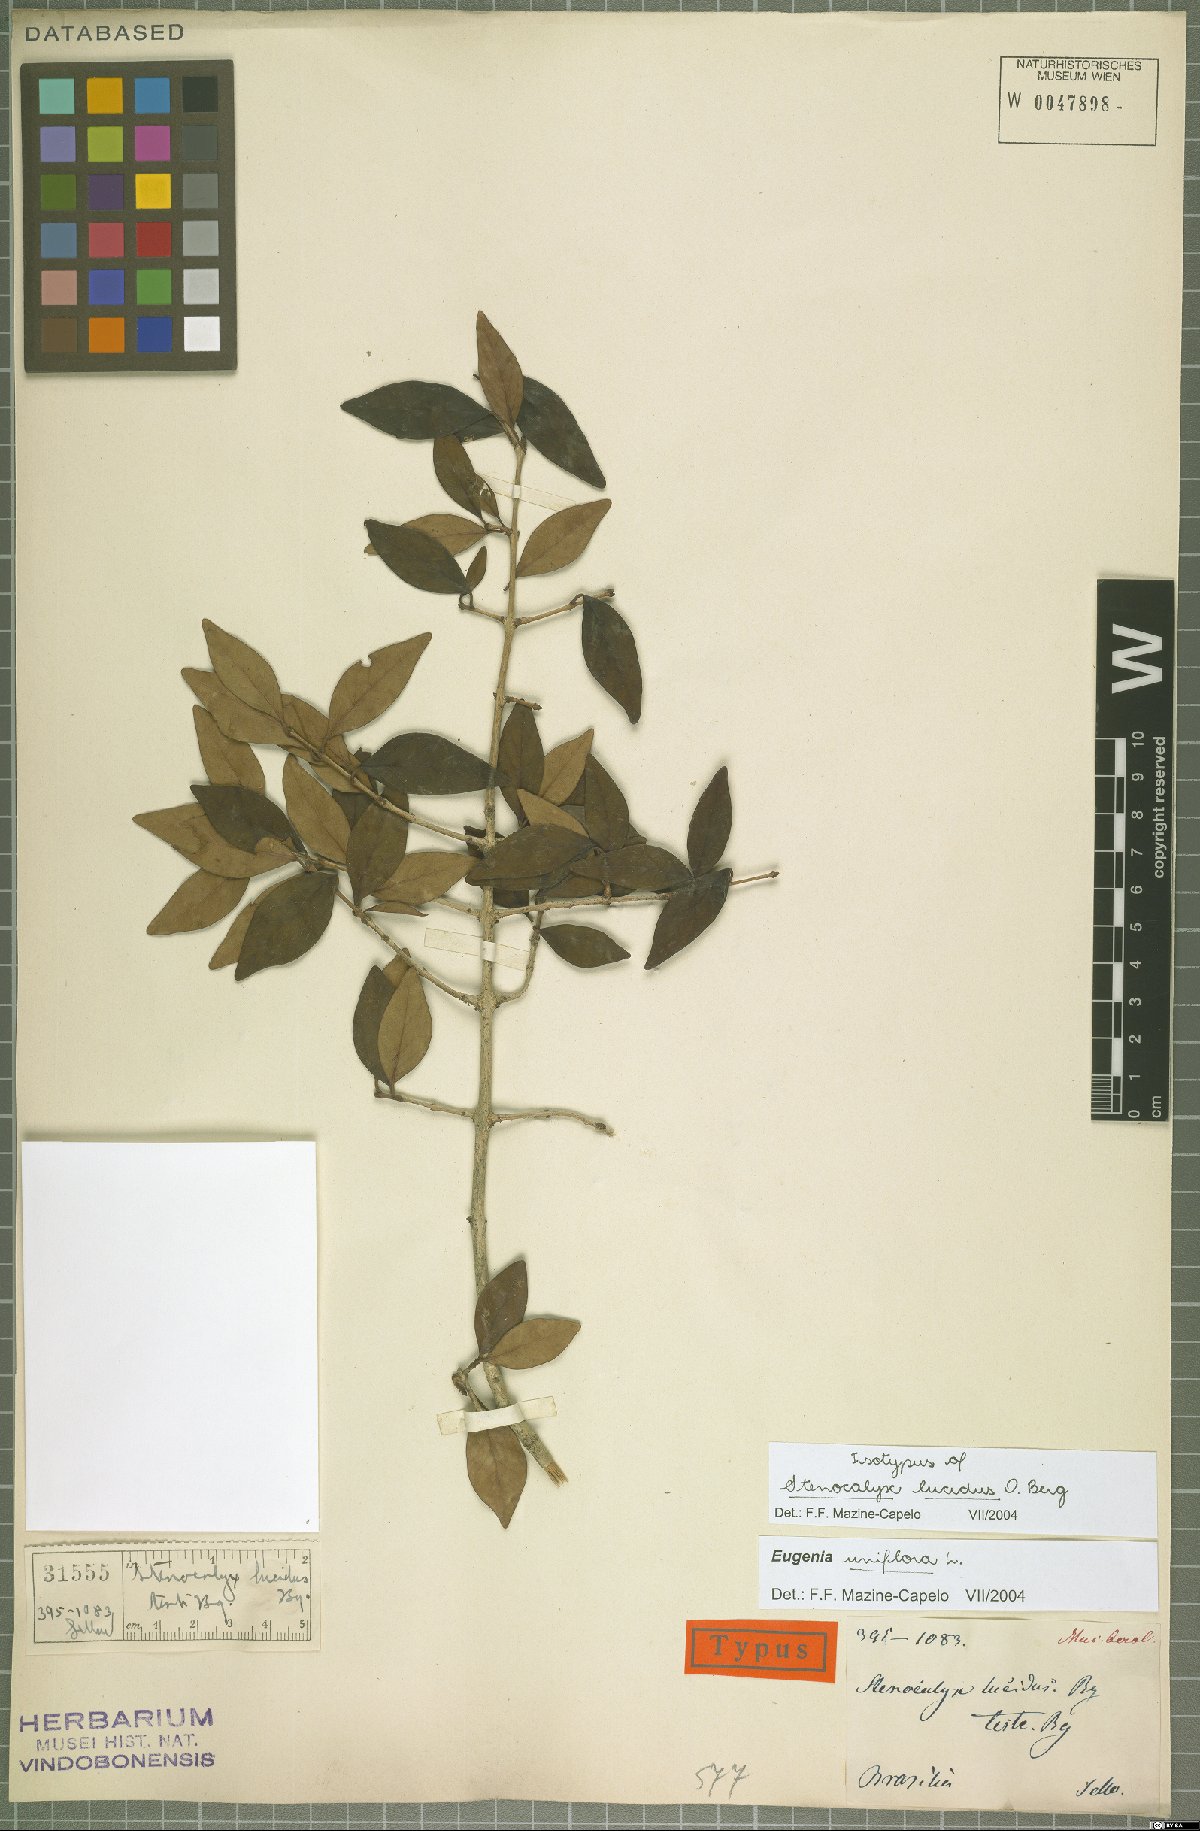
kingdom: Plantae
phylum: Tracheophyta
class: Magnoliopsida
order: Myrtales
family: Myrtaceae
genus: Eugenia
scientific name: Eugenia uniflora
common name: Surinam cherry
